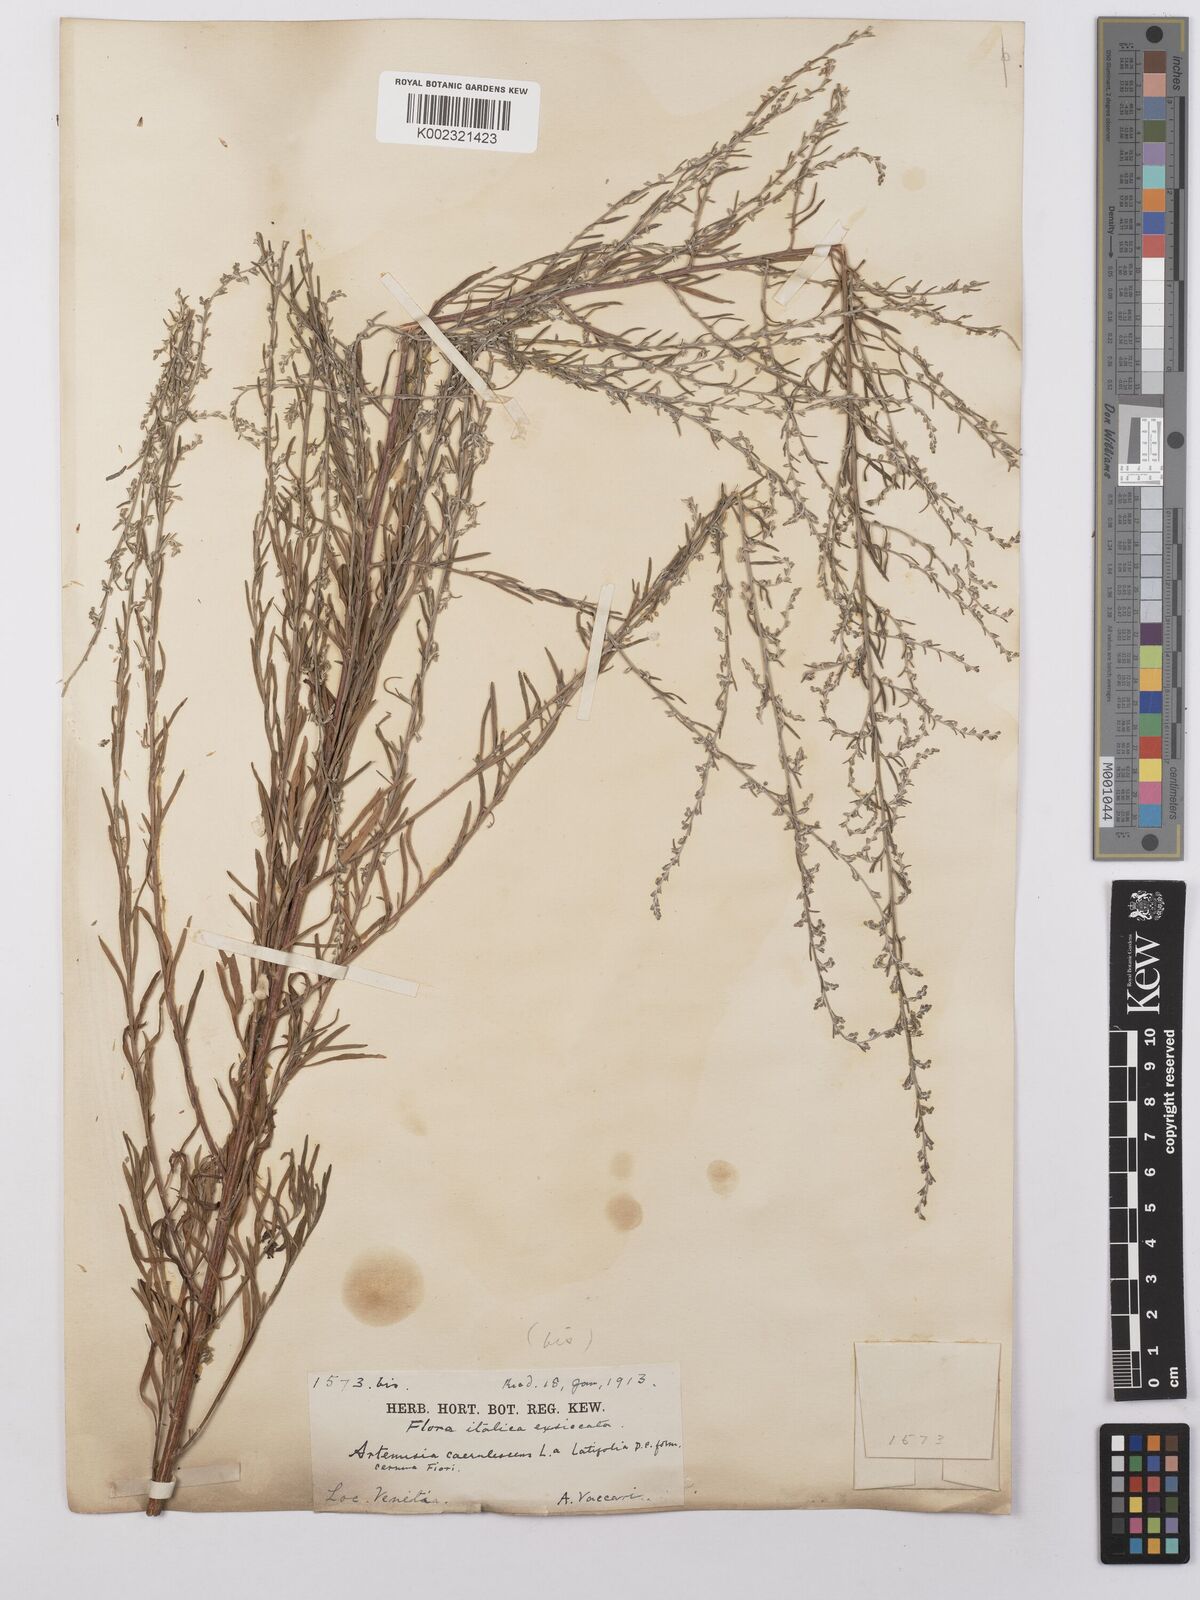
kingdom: Plantae
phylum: Tracheophyta
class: Magnoliopsida
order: Asterales
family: Asteraceae
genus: Artemisia
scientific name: Artemisia caerulescens
